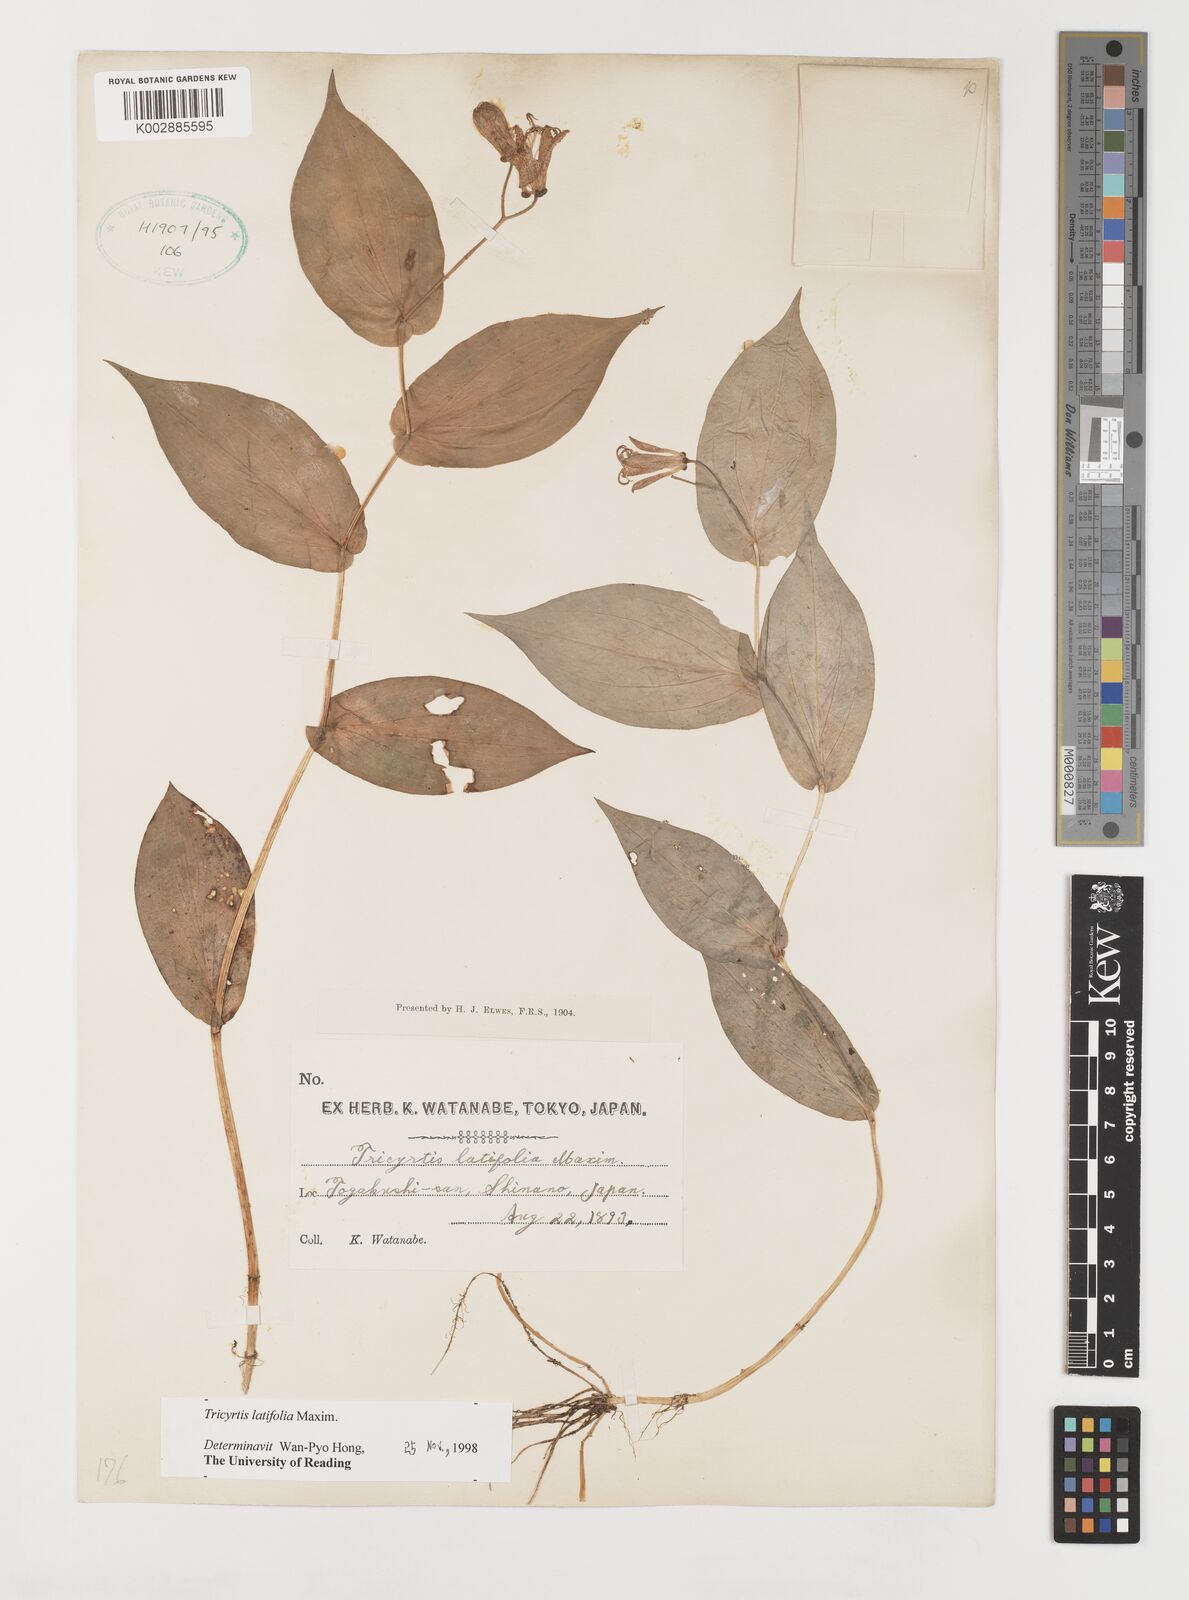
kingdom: Plantae
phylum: Tracheophyta
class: Liliopsida
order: Liliales
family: Liliaceae
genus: Tricyrtis
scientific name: Tricyrtis latifolia
